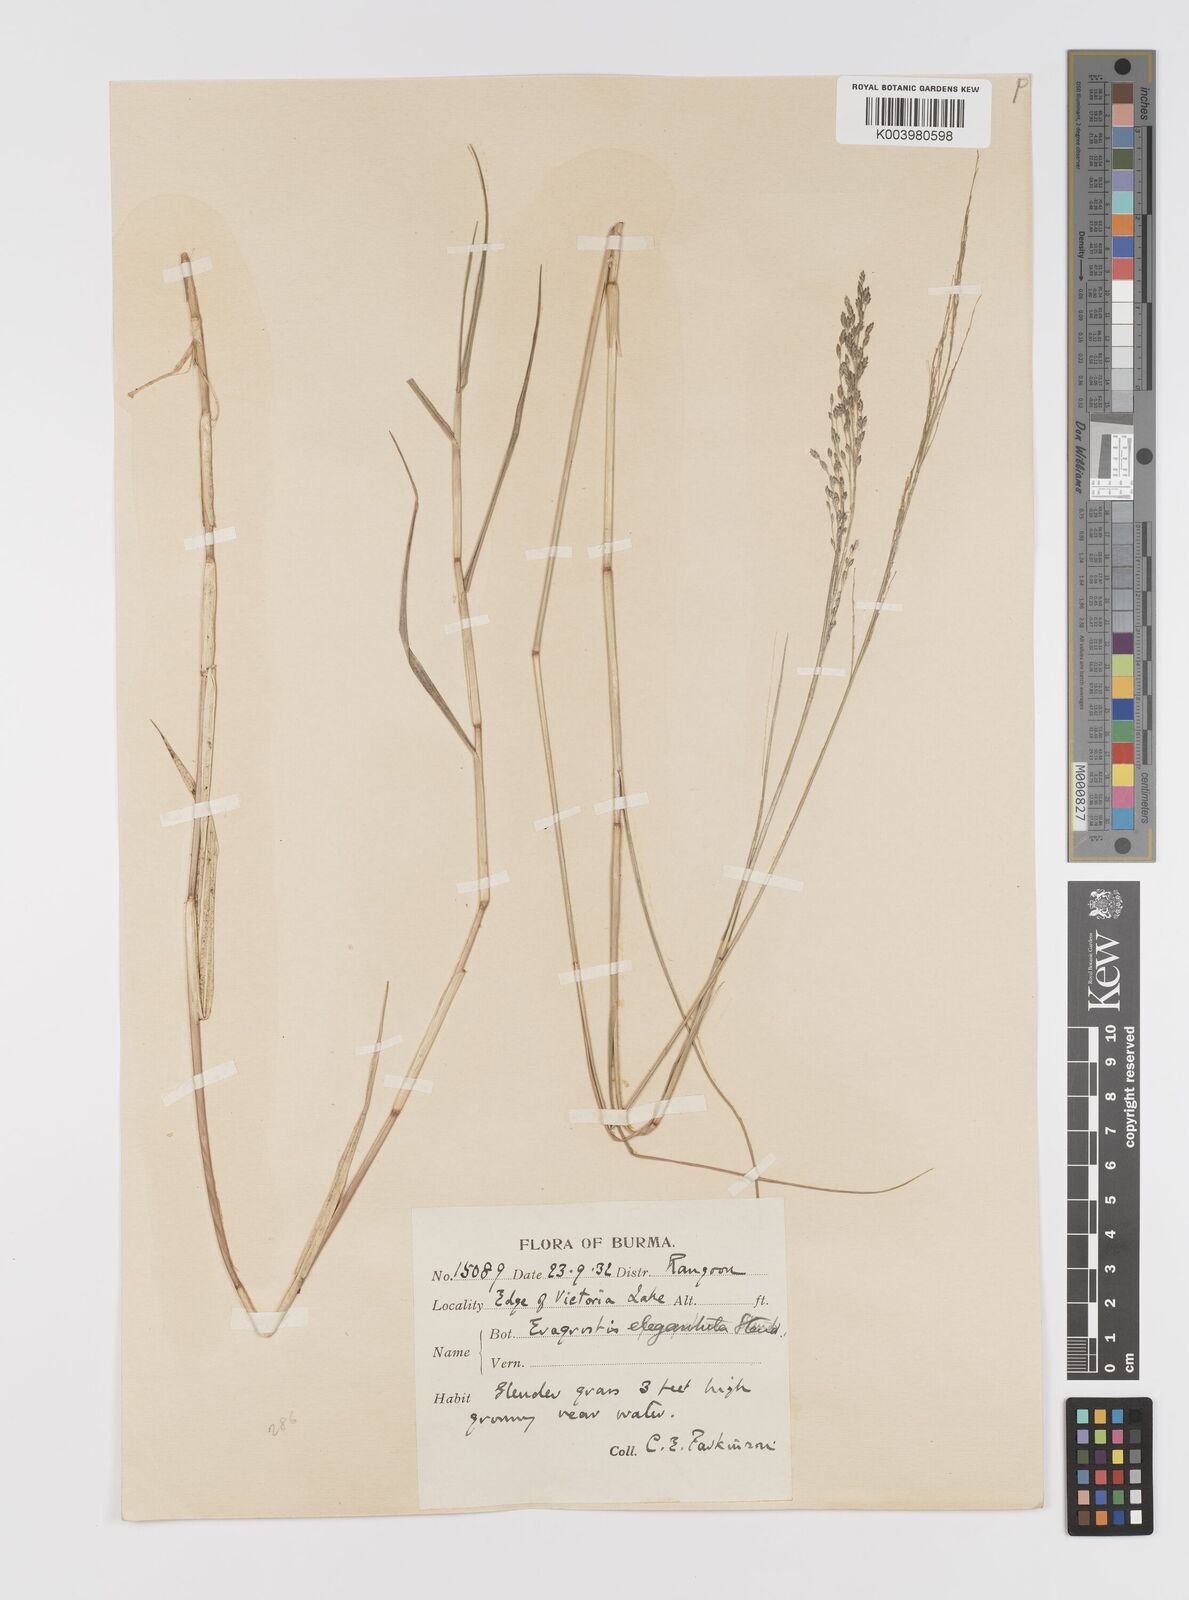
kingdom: Plantae
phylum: Tracheophyta
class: Liliopsida
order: Poales
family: Poaceae
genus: Eragrostis
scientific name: Eragrostis atrovirens
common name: Thalia lovegrass
